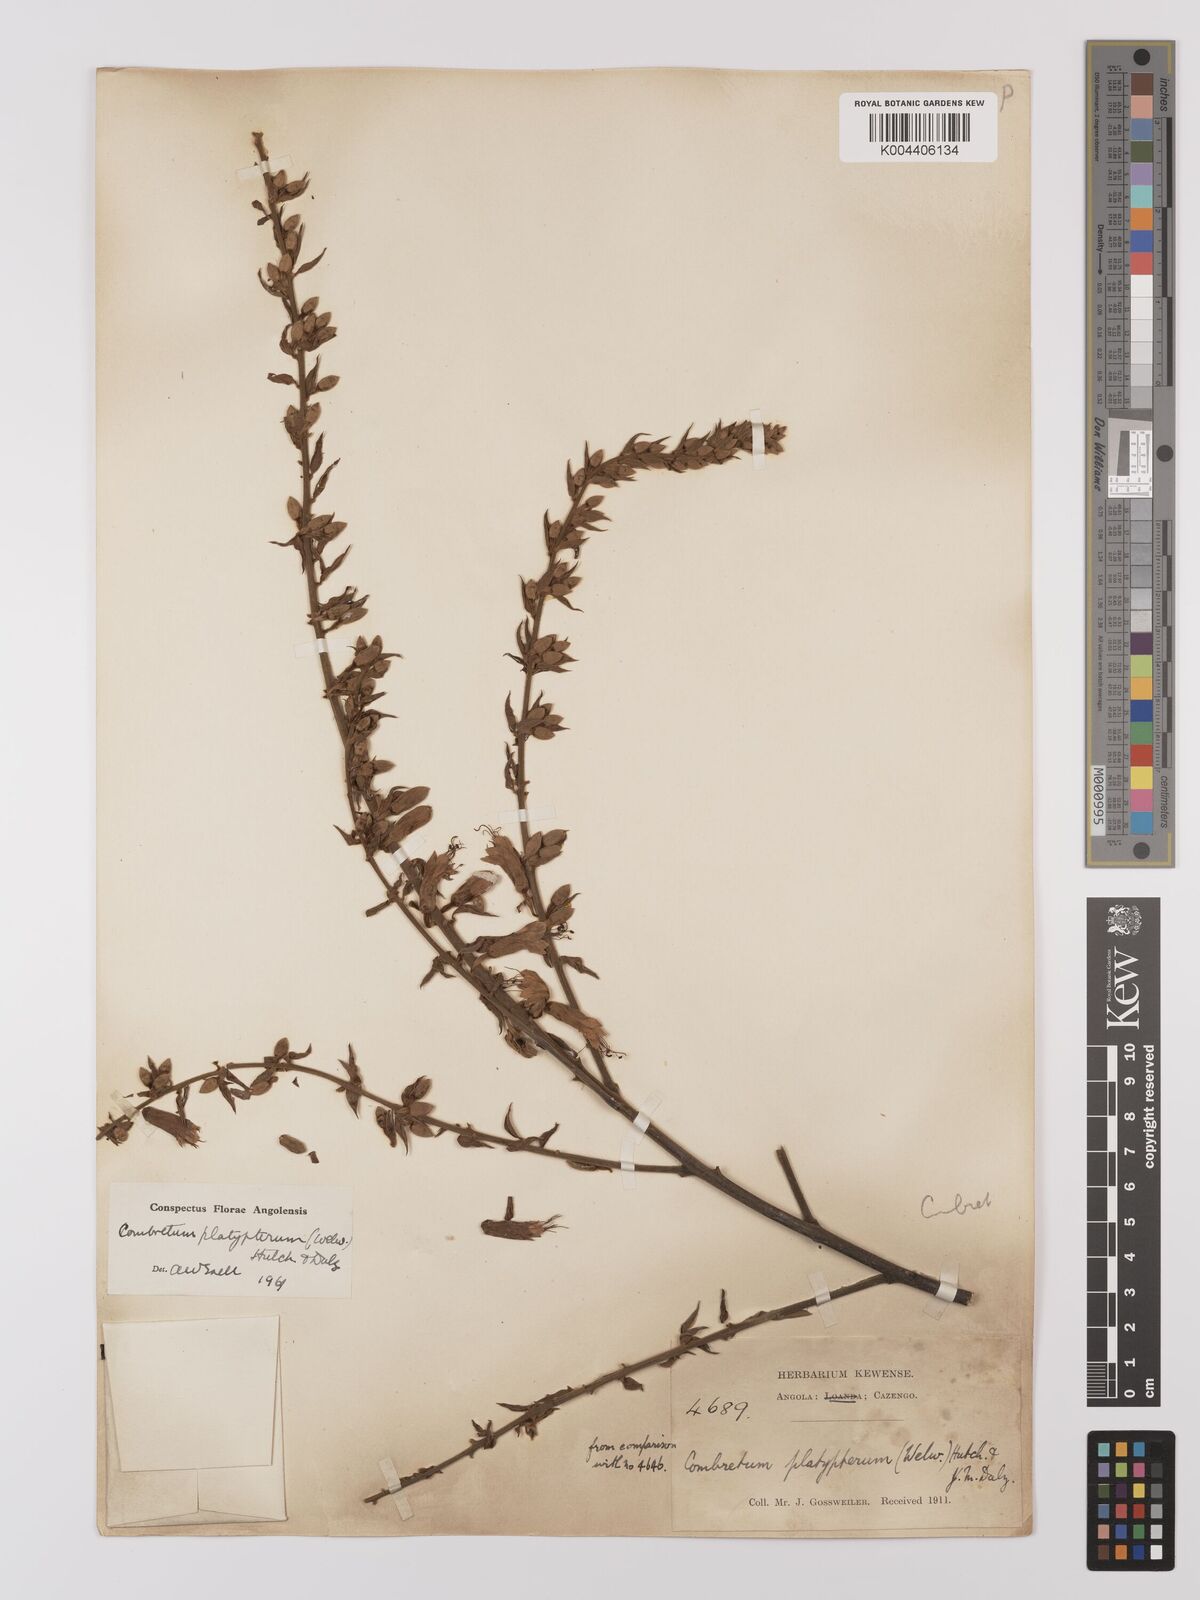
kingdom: Plantae
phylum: Tracheophyta
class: Magnoliopsida
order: Myrtales
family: Combretaceae
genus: Combretum
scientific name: Combretum platypterum
